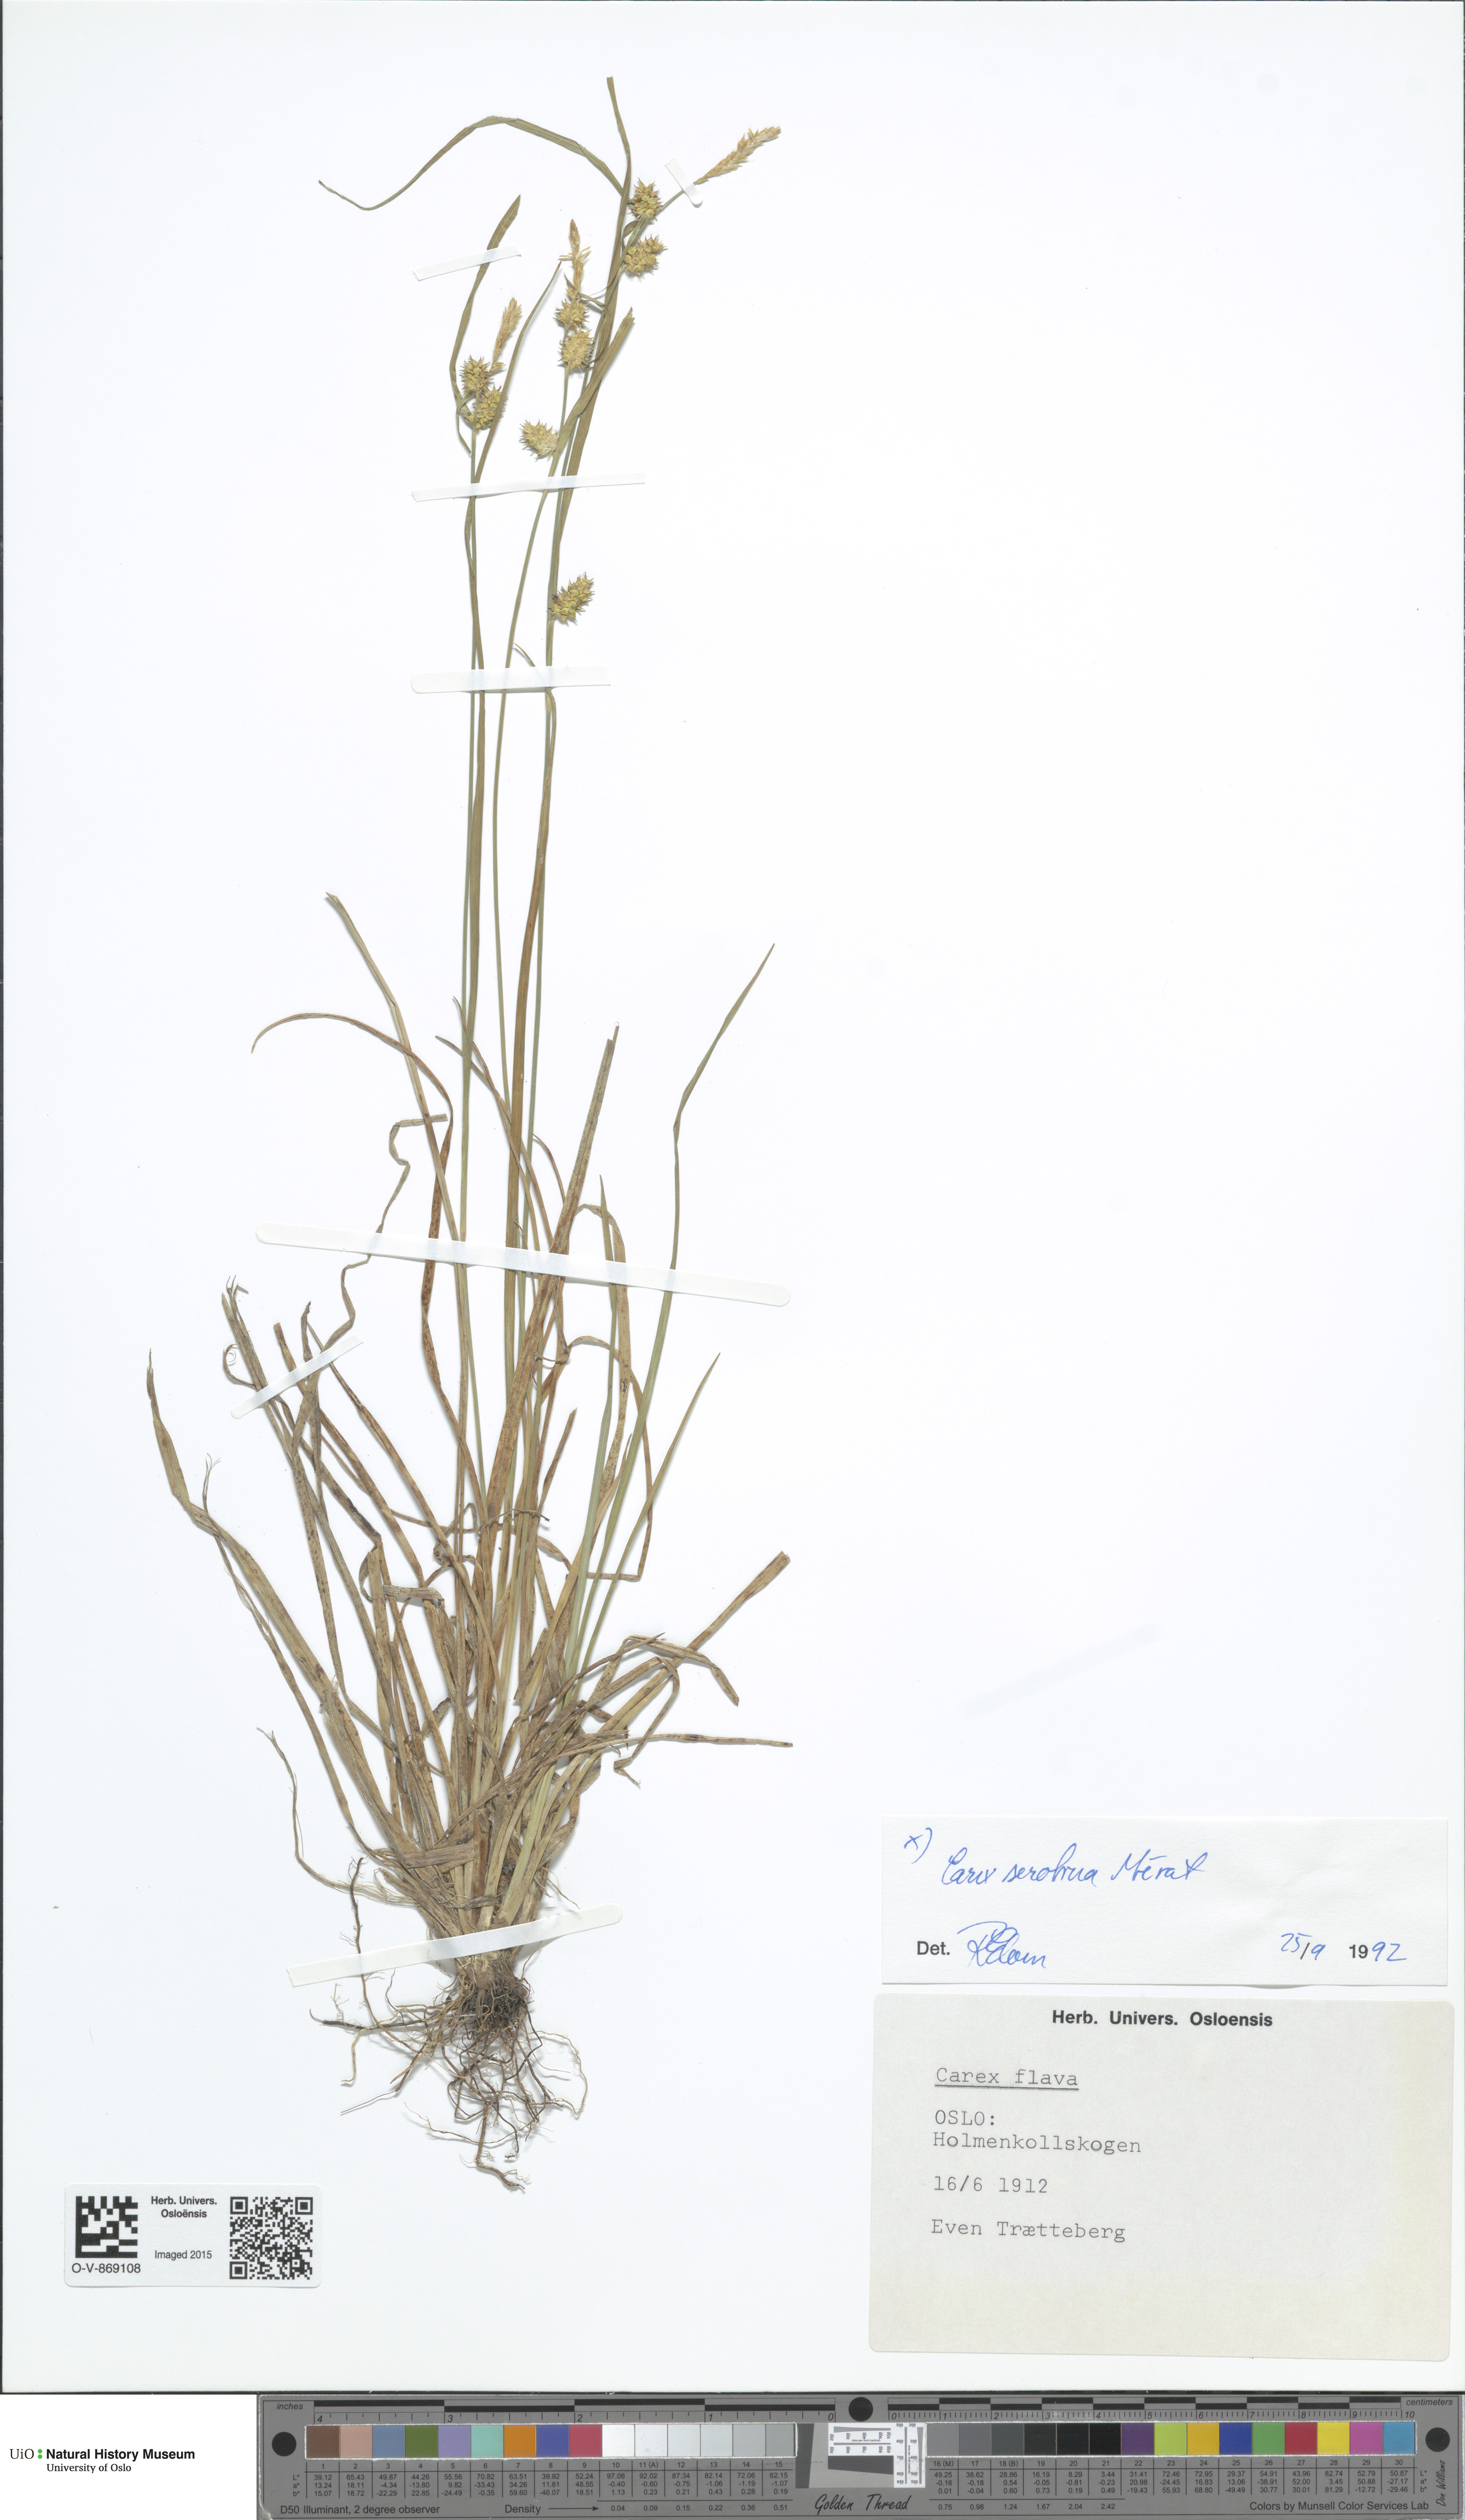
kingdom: Plantae
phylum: Tracheophyta
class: Liliopsida
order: Poales
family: Cyperaceae
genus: Carex
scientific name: Carex oederi
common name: Common & small-fruited yellow-sedge
